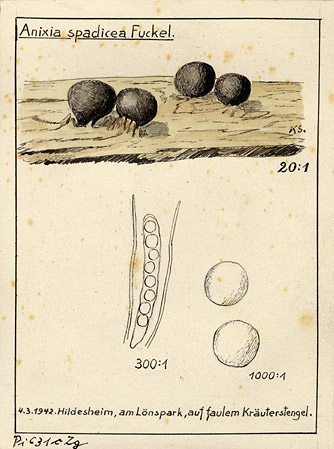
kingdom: Fungi
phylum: Ascomycota
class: Pezizomycetes
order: Pezizales
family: Pyronemataceae
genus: Orbicula
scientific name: Orbicula parietina
